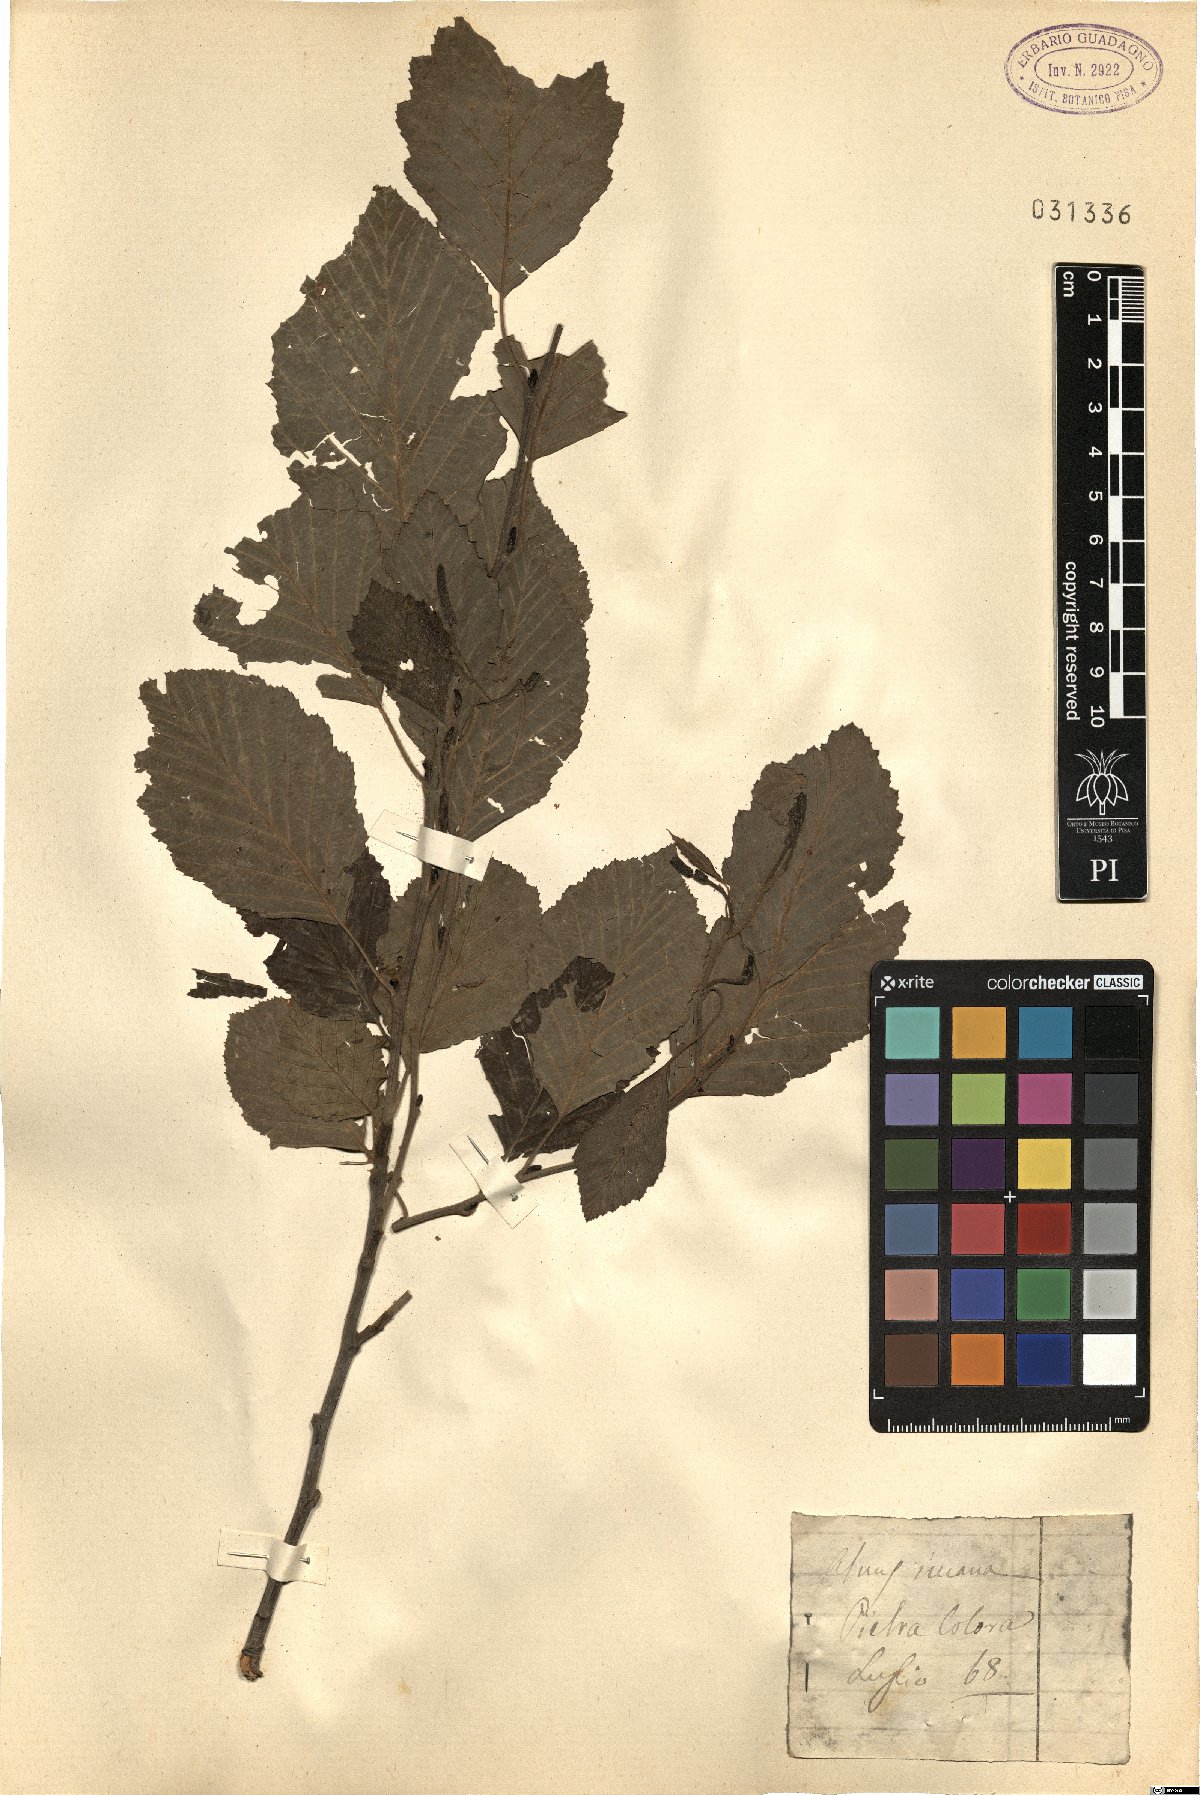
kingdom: Plantae
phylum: Tracheophyta
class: Magnoliopsida
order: Fagales
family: Betulaceae
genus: Alnus
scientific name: Alnus incana
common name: Grey alder
